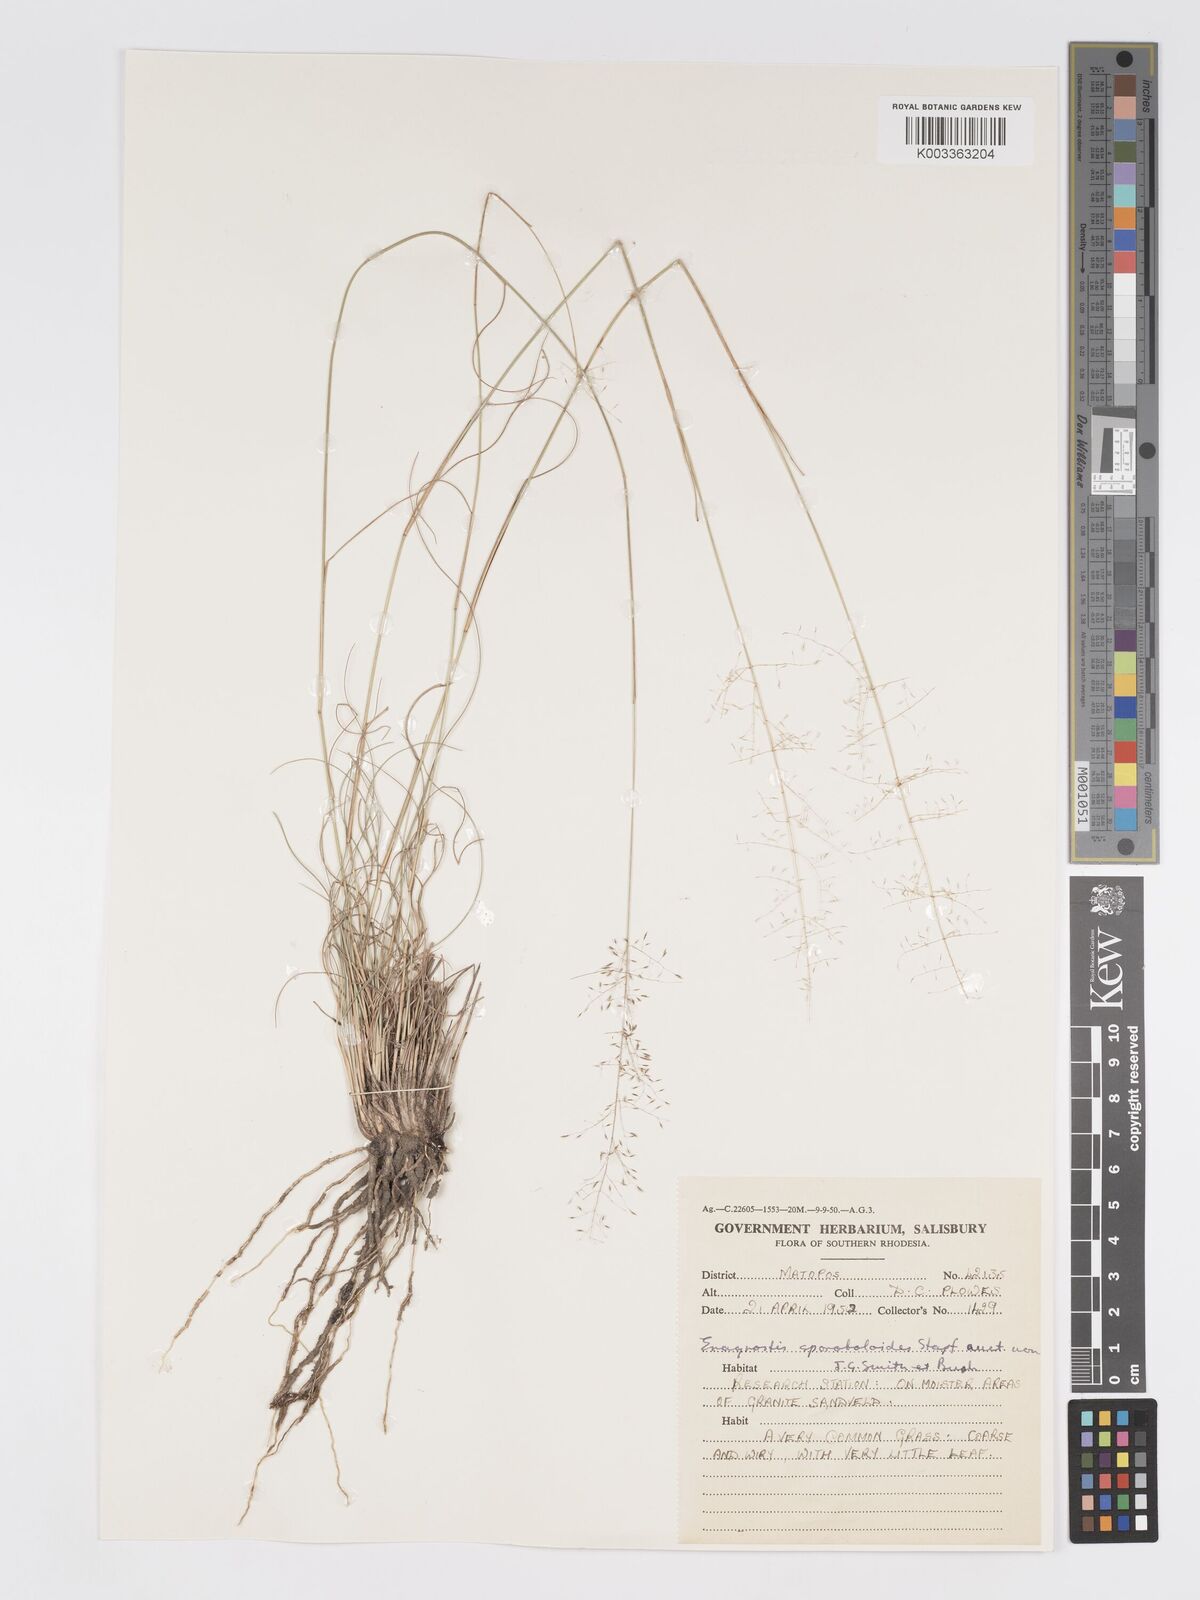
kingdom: Plantae
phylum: Tracheophyta
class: Liliopsida
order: Poales
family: Poaceae
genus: Eragrostis
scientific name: Eragrostis stapfii
